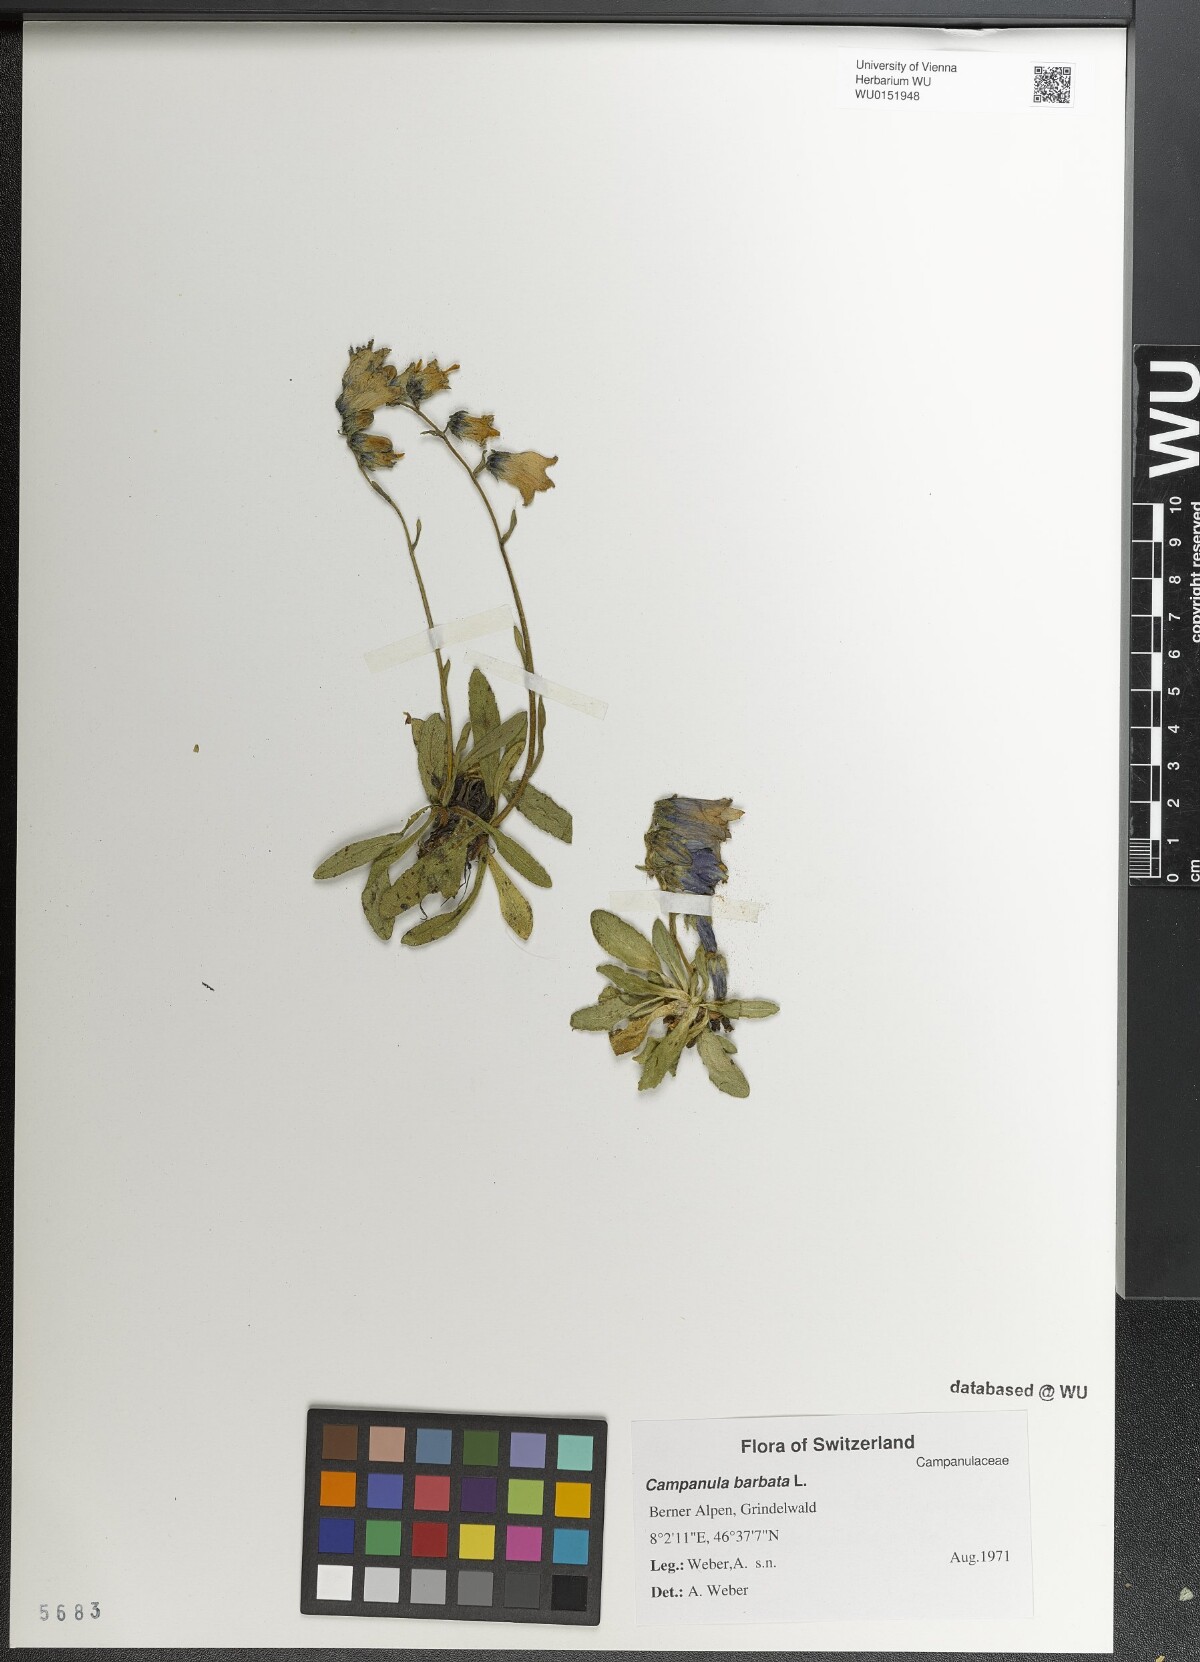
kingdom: Plantae
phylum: Tracheophyta
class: Magnoliopsida
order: Asterales
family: Campanulaceae
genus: Campanula
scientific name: Campanula barbata
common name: Bearded bellflower
